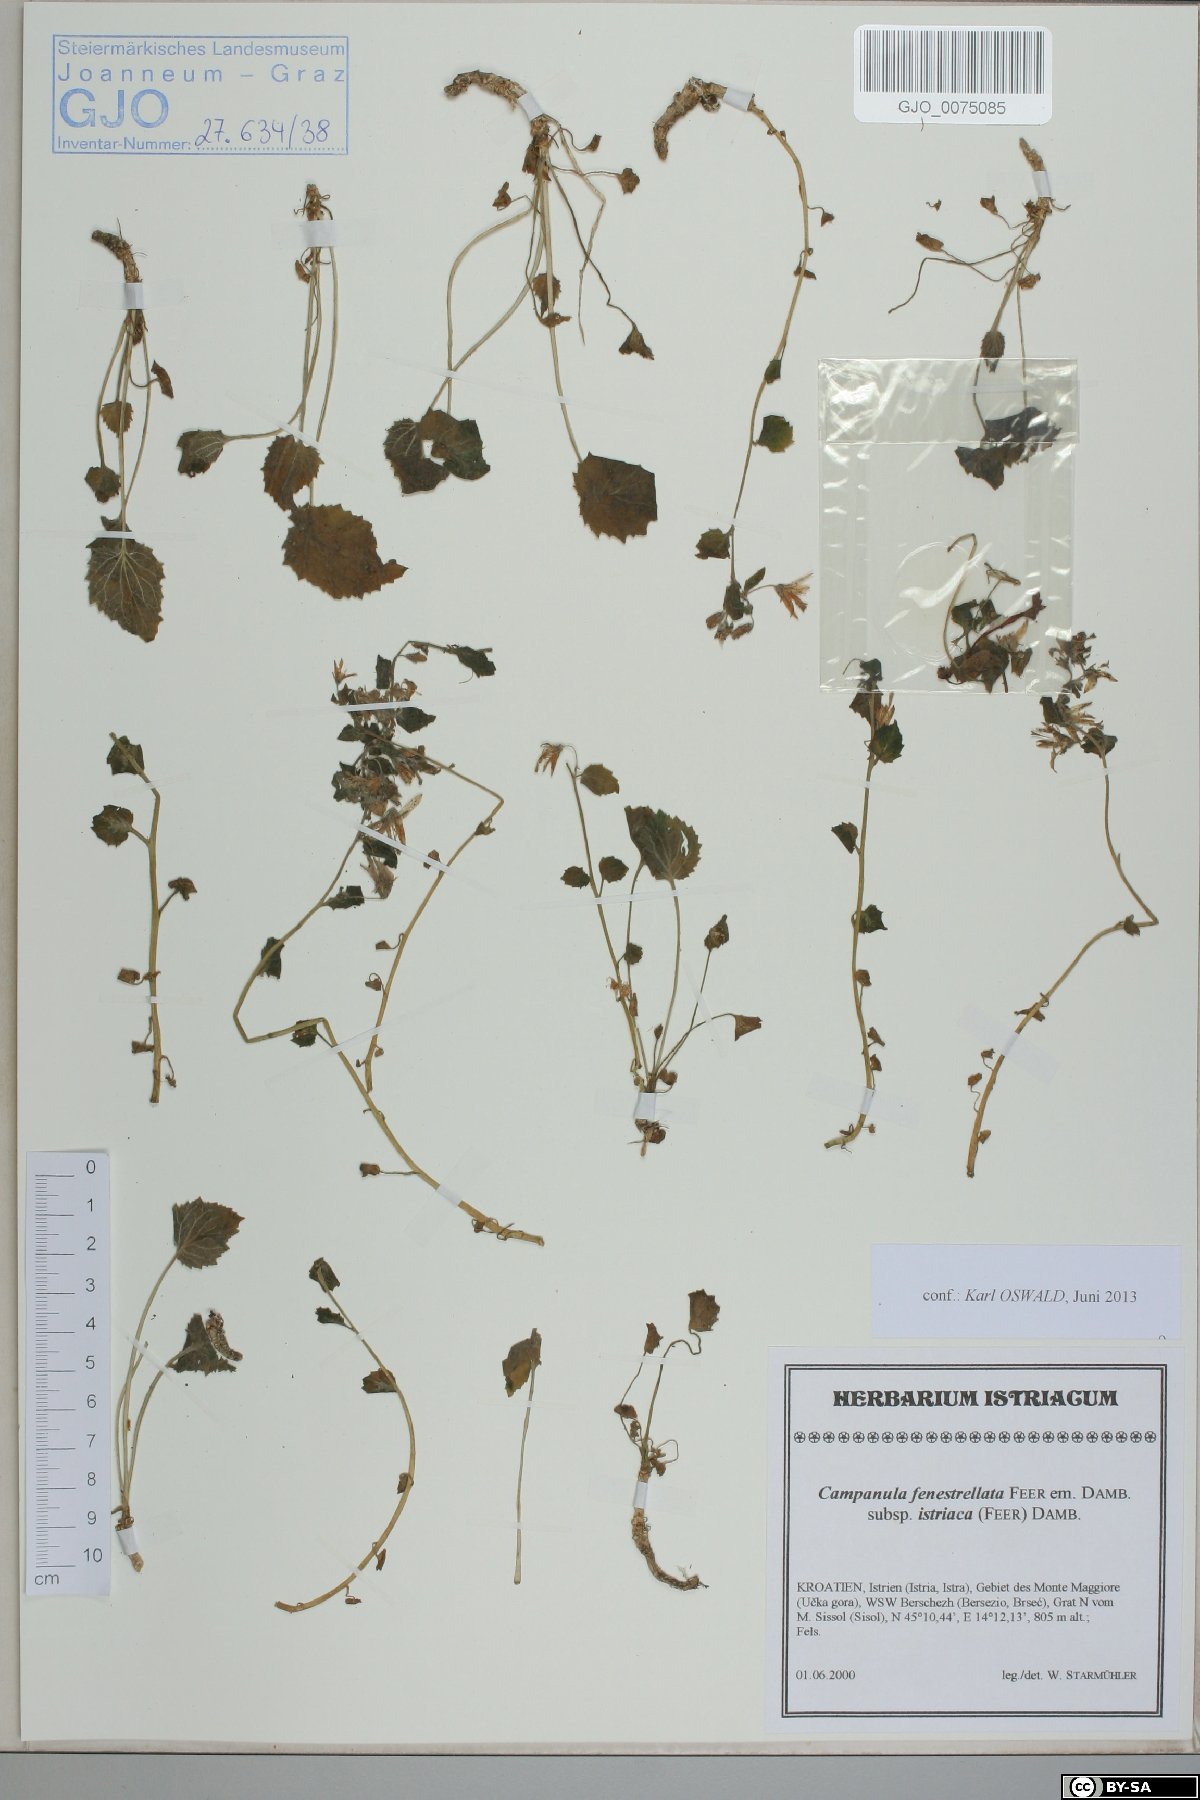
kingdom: Plantae
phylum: Tracheophyta
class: Magnoliopsida
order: Asterales
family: Campanulaceae
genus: Campanula
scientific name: Campanula fenestrellata
